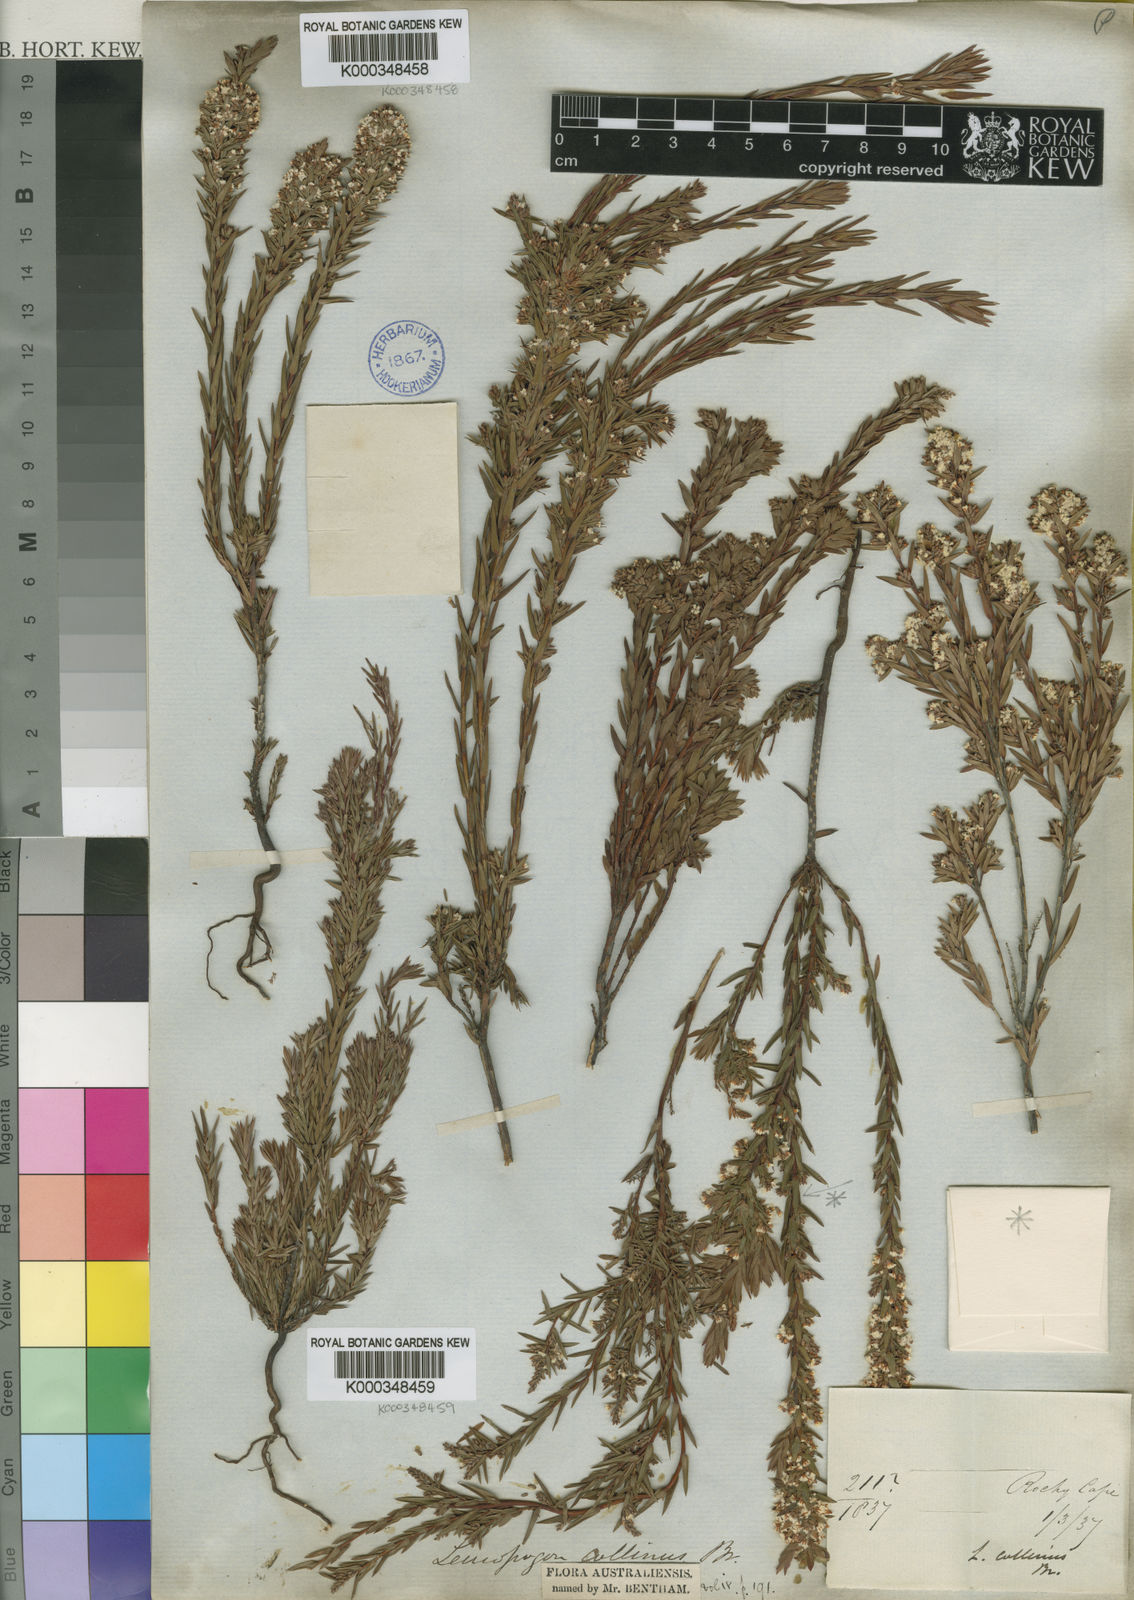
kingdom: Plantae
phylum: Tracheophyta
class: Magnoliopsida
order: Ericales
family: Ericaceae
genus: Leucopogon
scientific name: Leucopogon collinus
